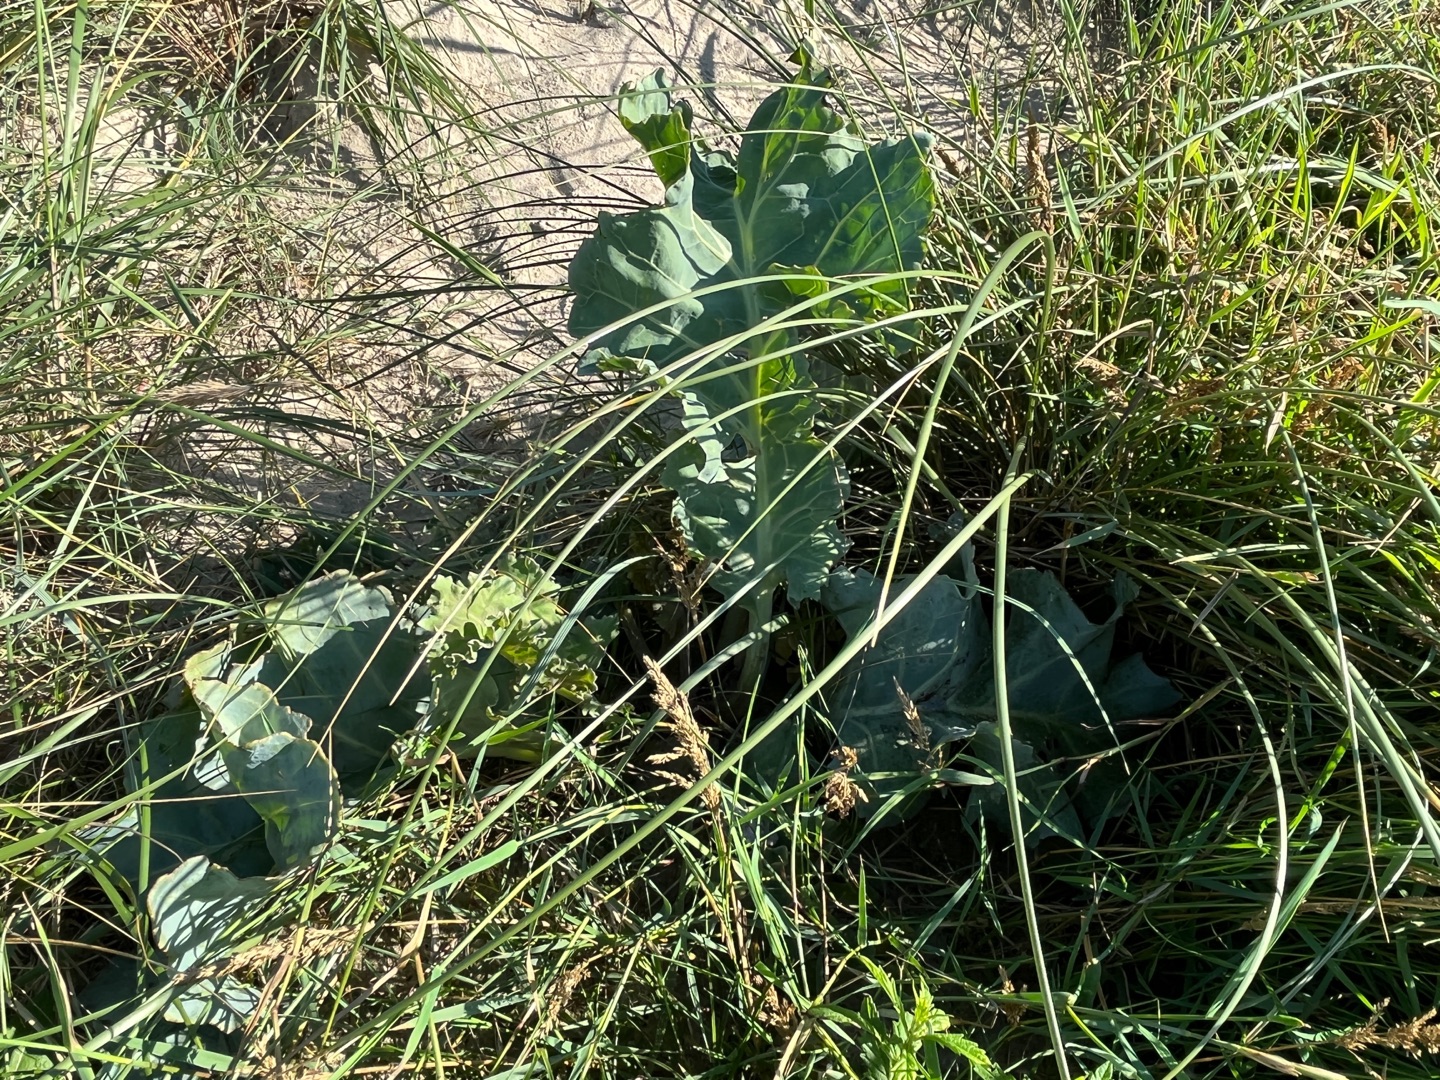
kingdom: Plantae
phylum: Tracheophyta
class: Magnoliopsida
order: Brassicales
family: Brassicaceae
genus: Crambe
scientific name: Crambe maritima
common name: Strandkål
